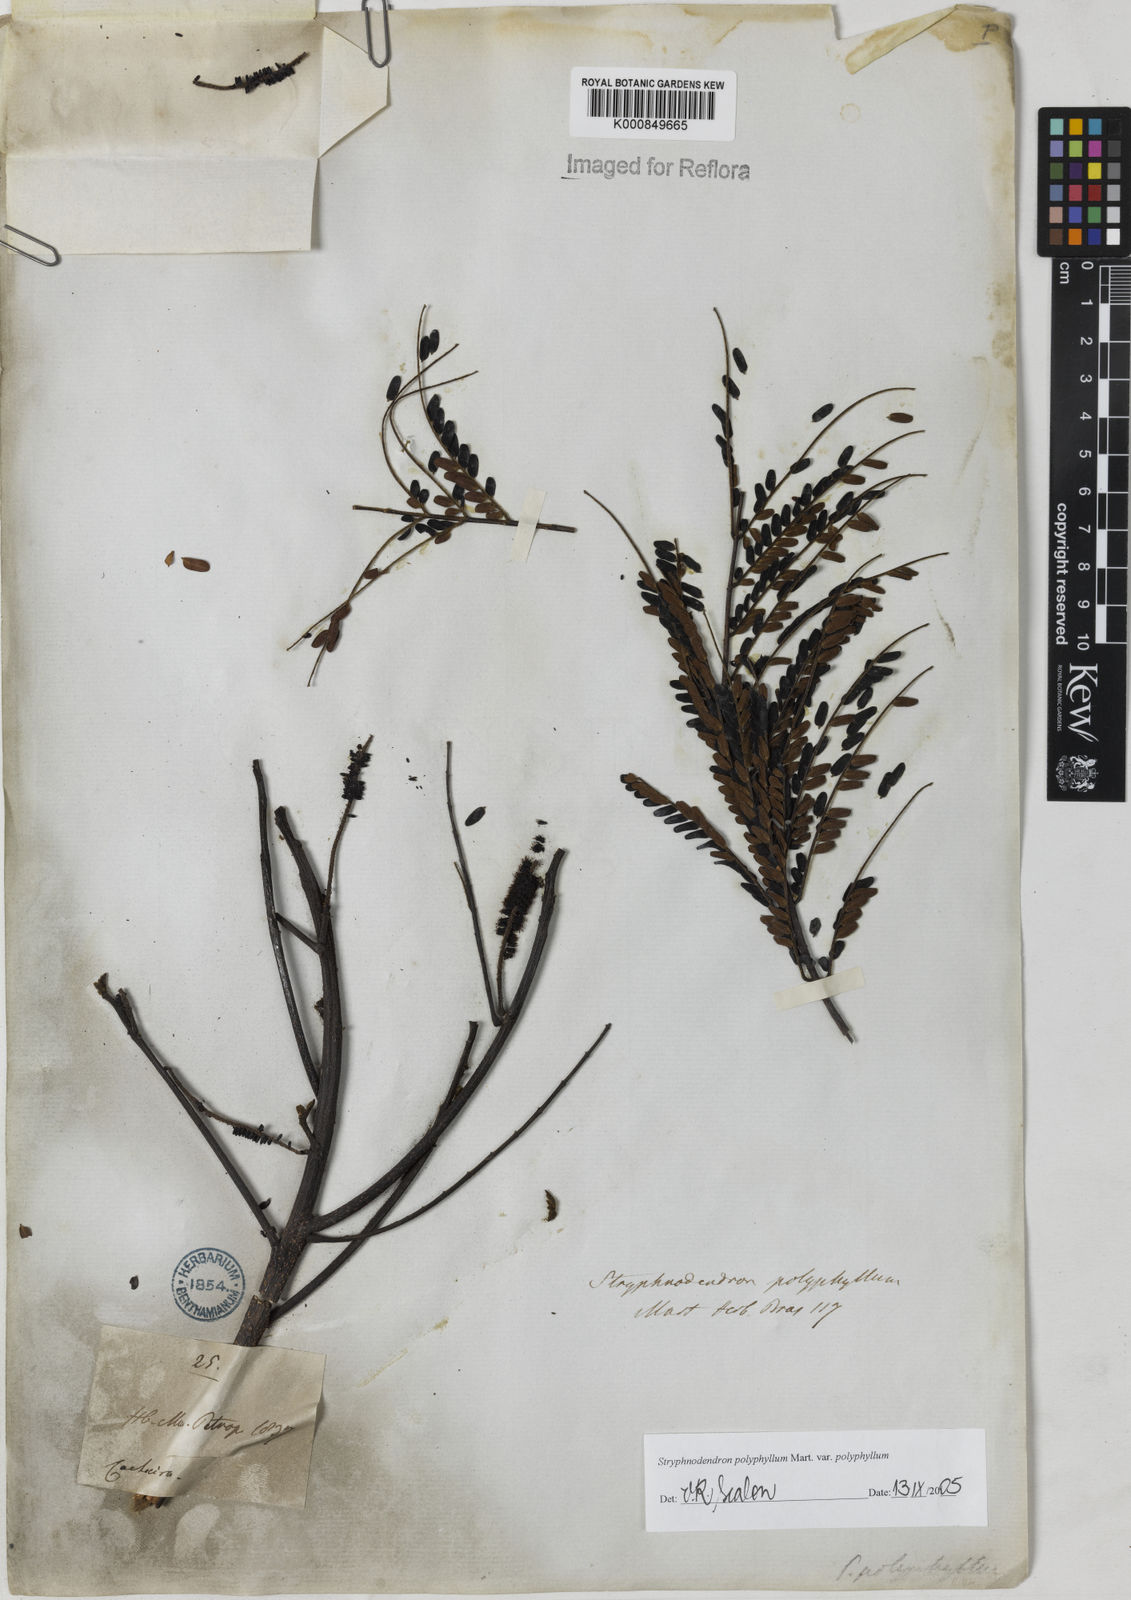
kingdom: Plantae
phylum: Tracheophyta
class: Magnoliopsida
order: Fabales
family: Fabaceae
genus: Stryphnodendron
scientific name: Stryphnodendron polyphyllum
